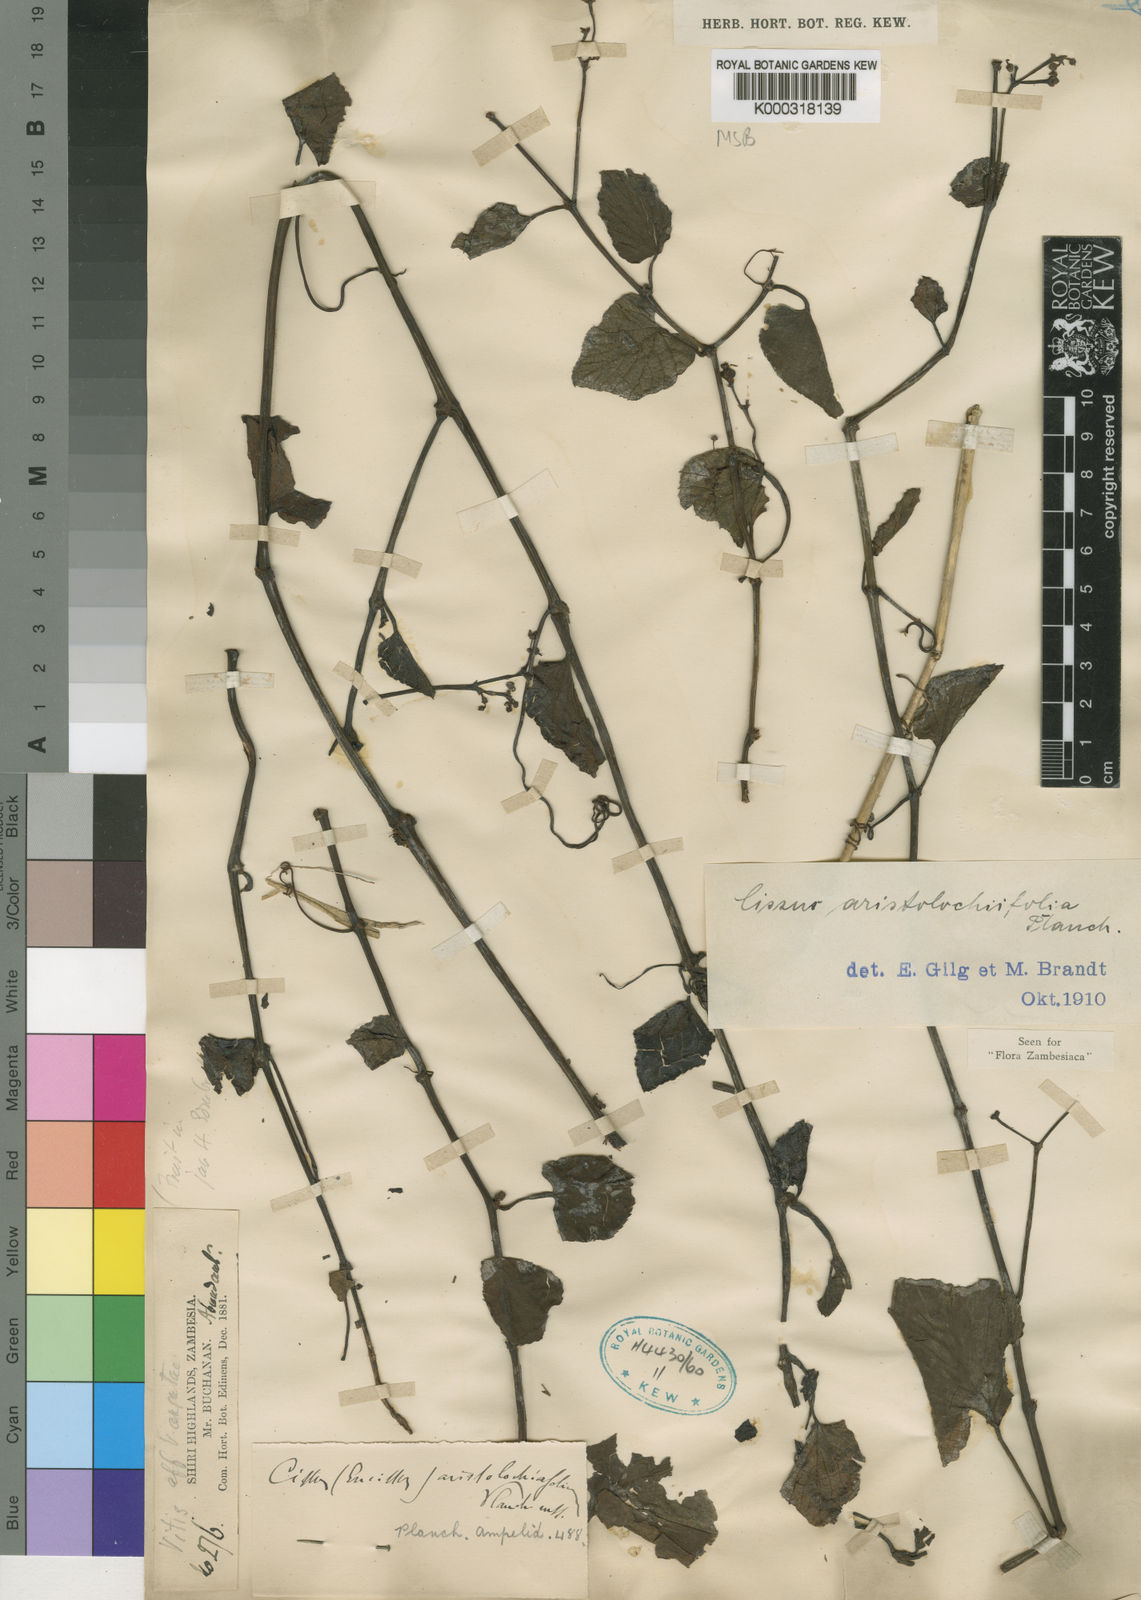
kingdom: Plantae
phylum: Tracheophyta
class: Magnoliopsida
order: Vitales
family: Vitaceae
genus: Cissus
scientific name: Cissus aristolochiifolia
